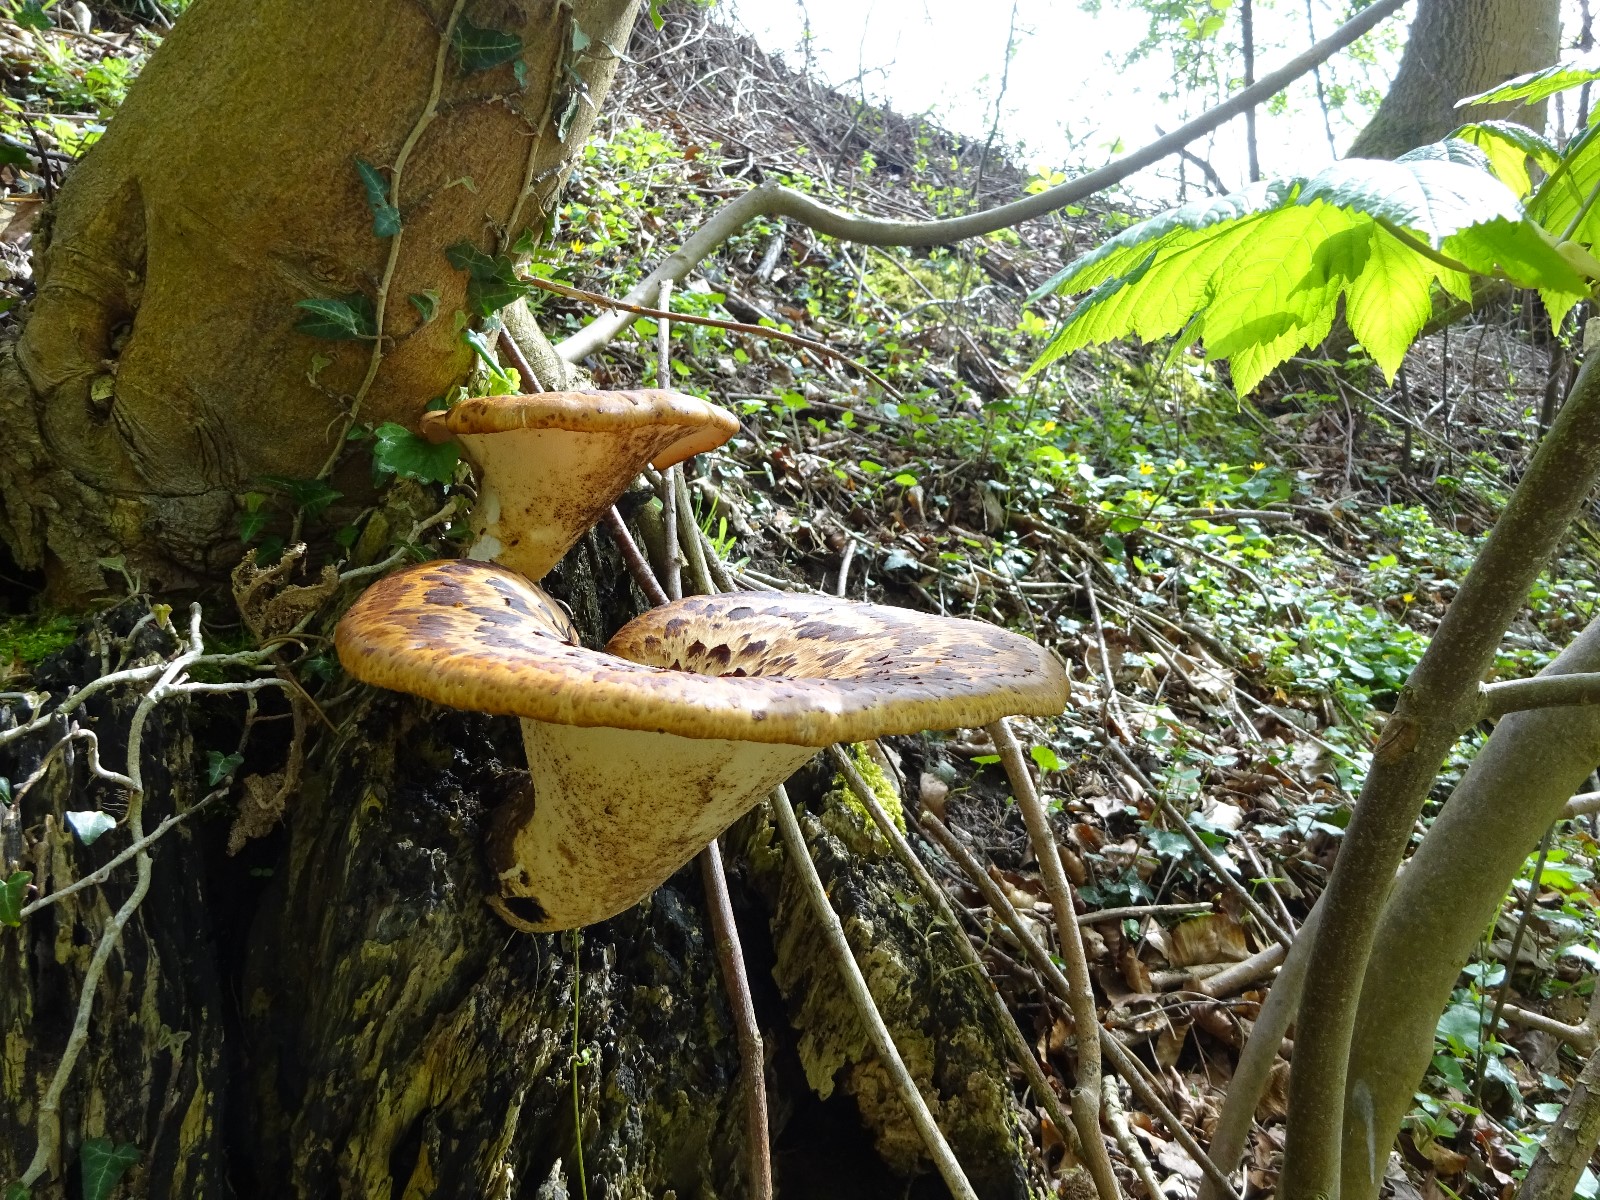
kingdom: Fungi
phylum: Basidiomycota
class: Agaricomycetes
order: Polyporales
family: Polyporaceae
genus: Cerioporus
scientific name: Cerioporus squamosus
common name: skællet stilkporesvamp
